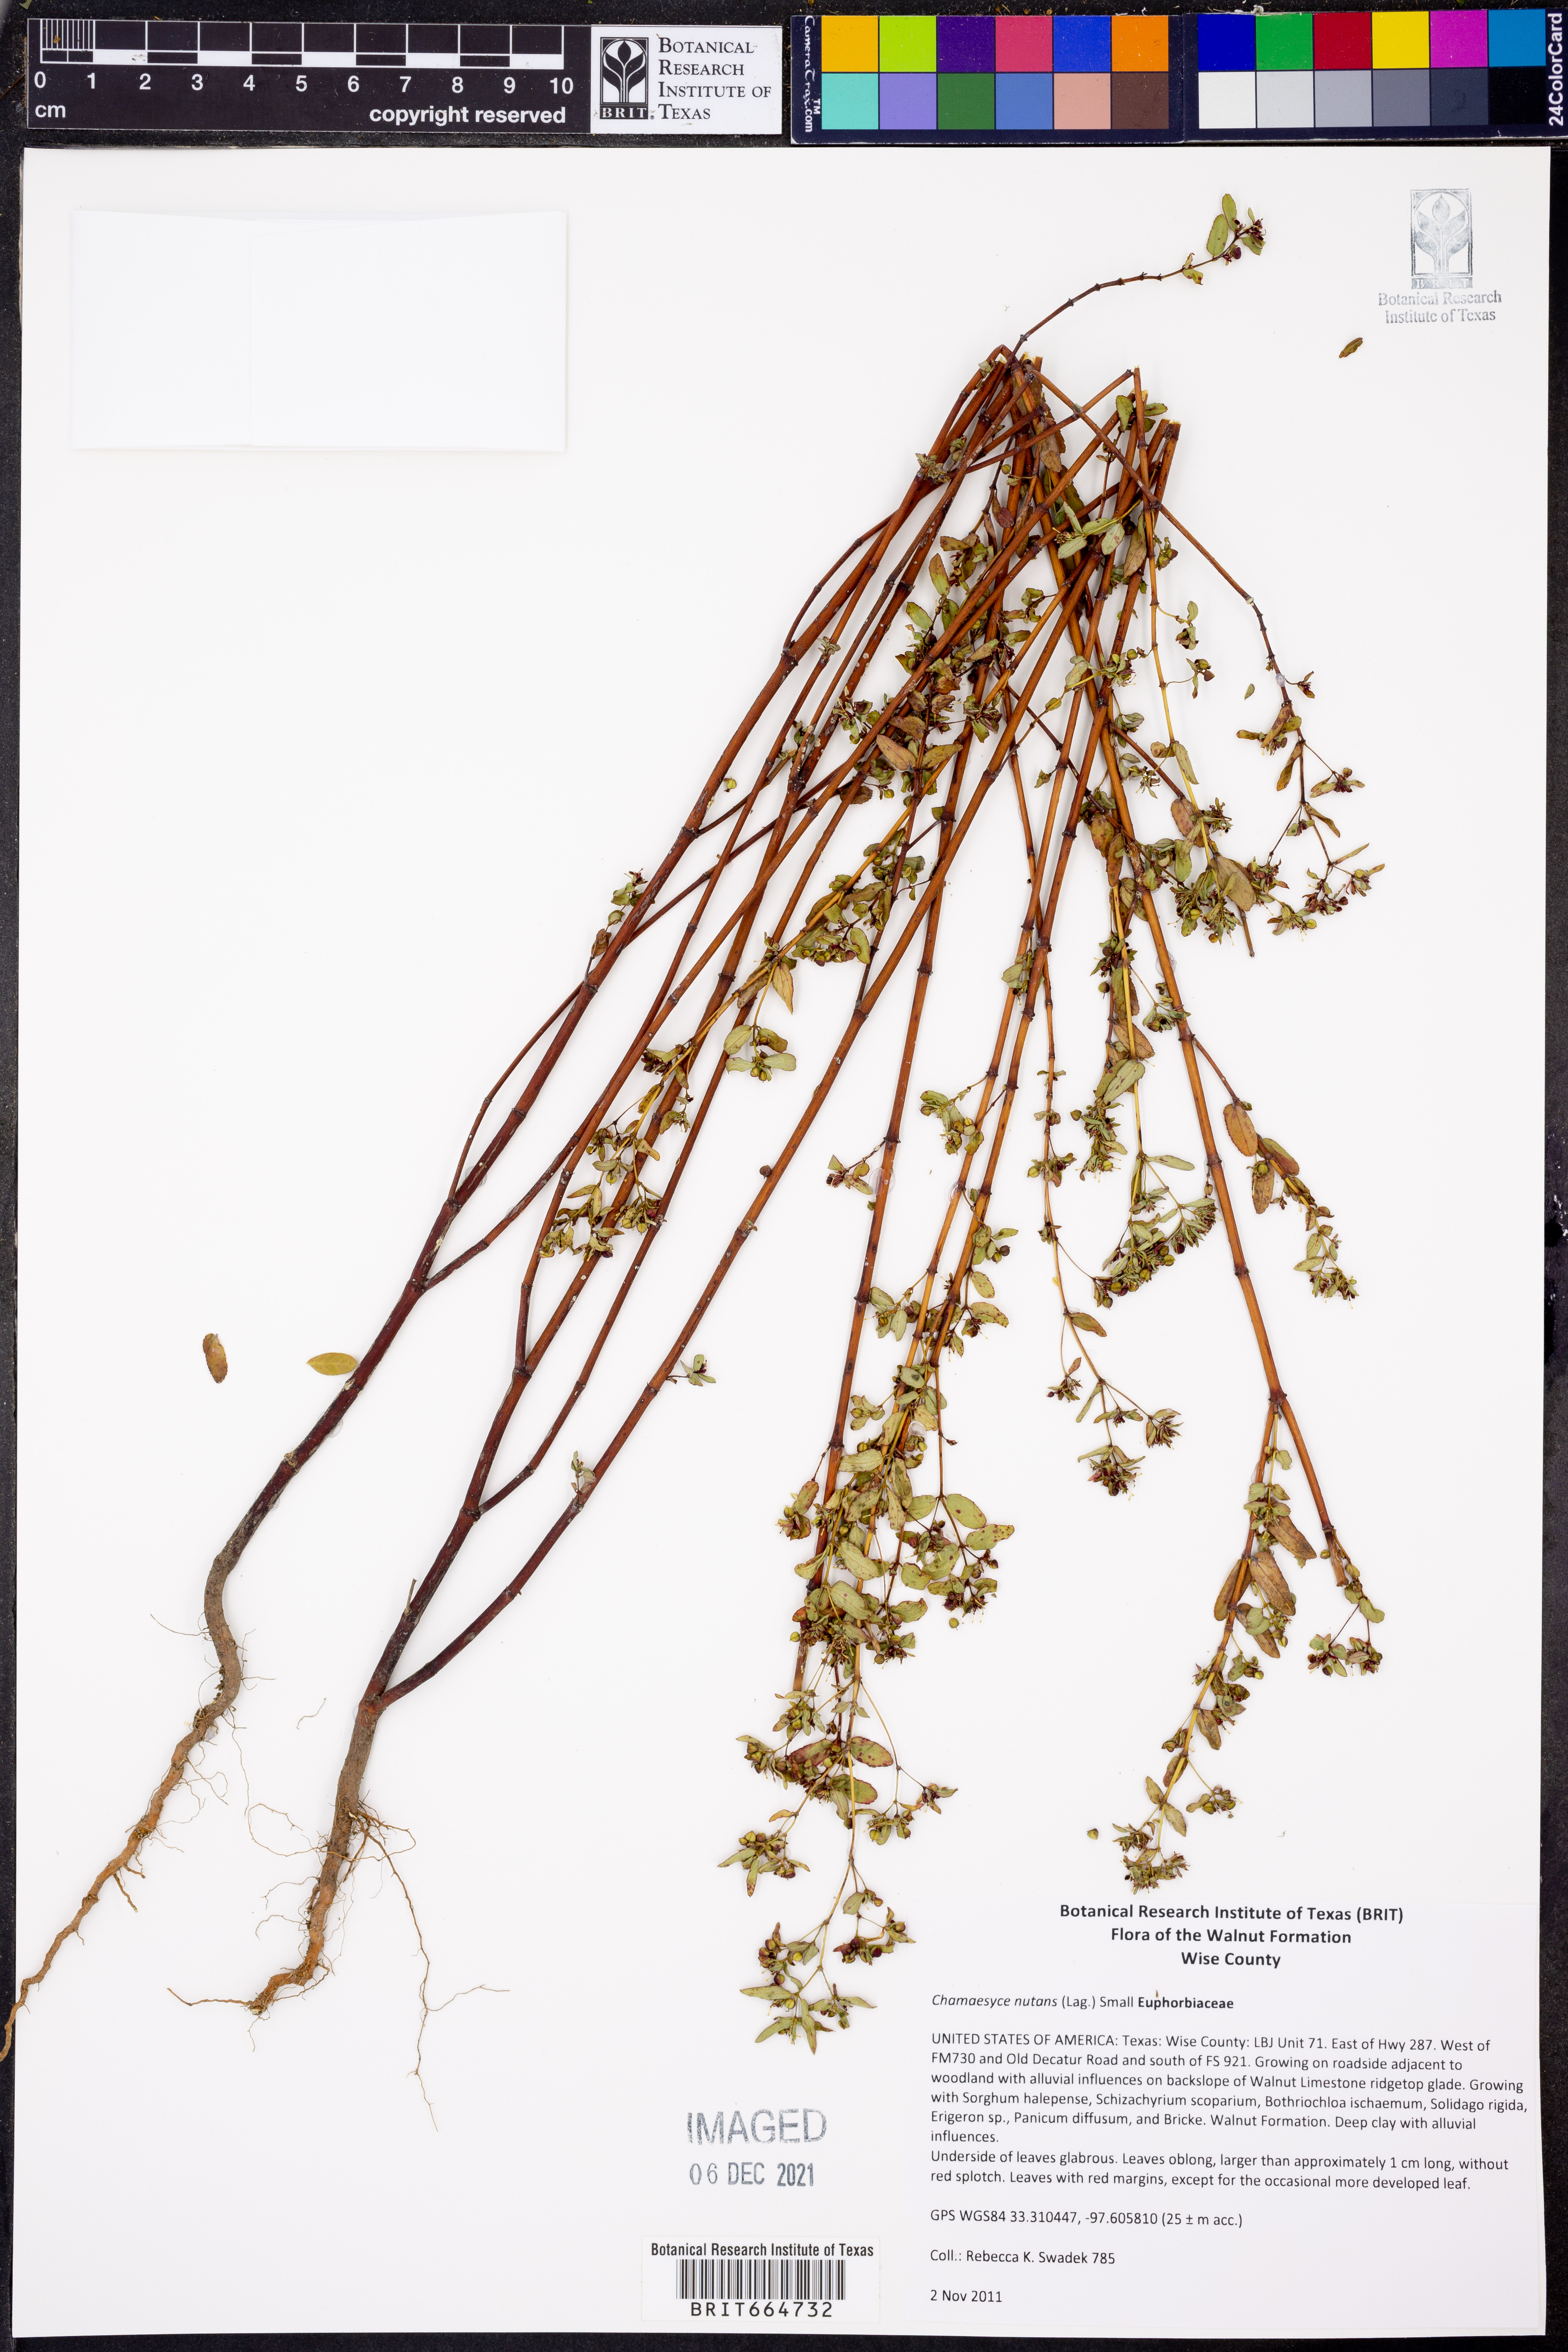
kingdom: Plantae
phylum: Tracheophyta
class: Magnoliopsida
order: Malpighiales
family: Euphorbiaceae
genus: Euphorbia
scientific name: Euphorbia nutans
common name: Eyebane
